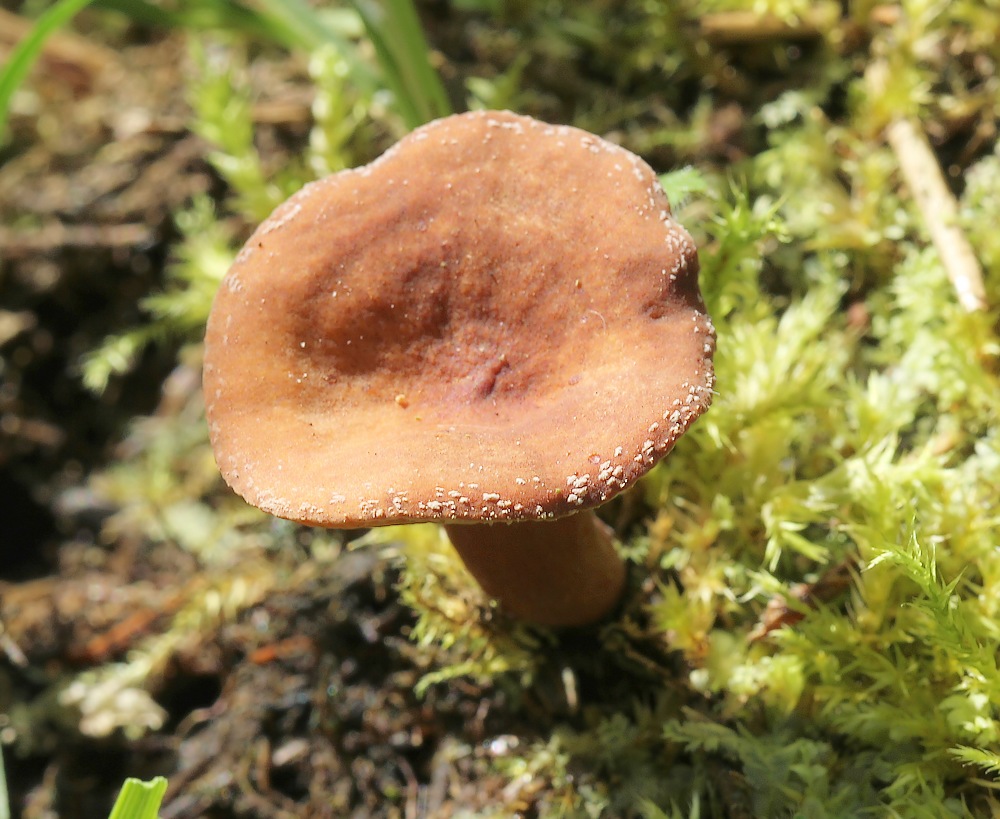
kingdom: Fungi
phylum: Basidiomycota
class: Agaricomycetes
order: Russulales
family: Russulaceae
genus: Lactarius
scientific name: Lactarius lacunarum
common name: sump-mælkehat
